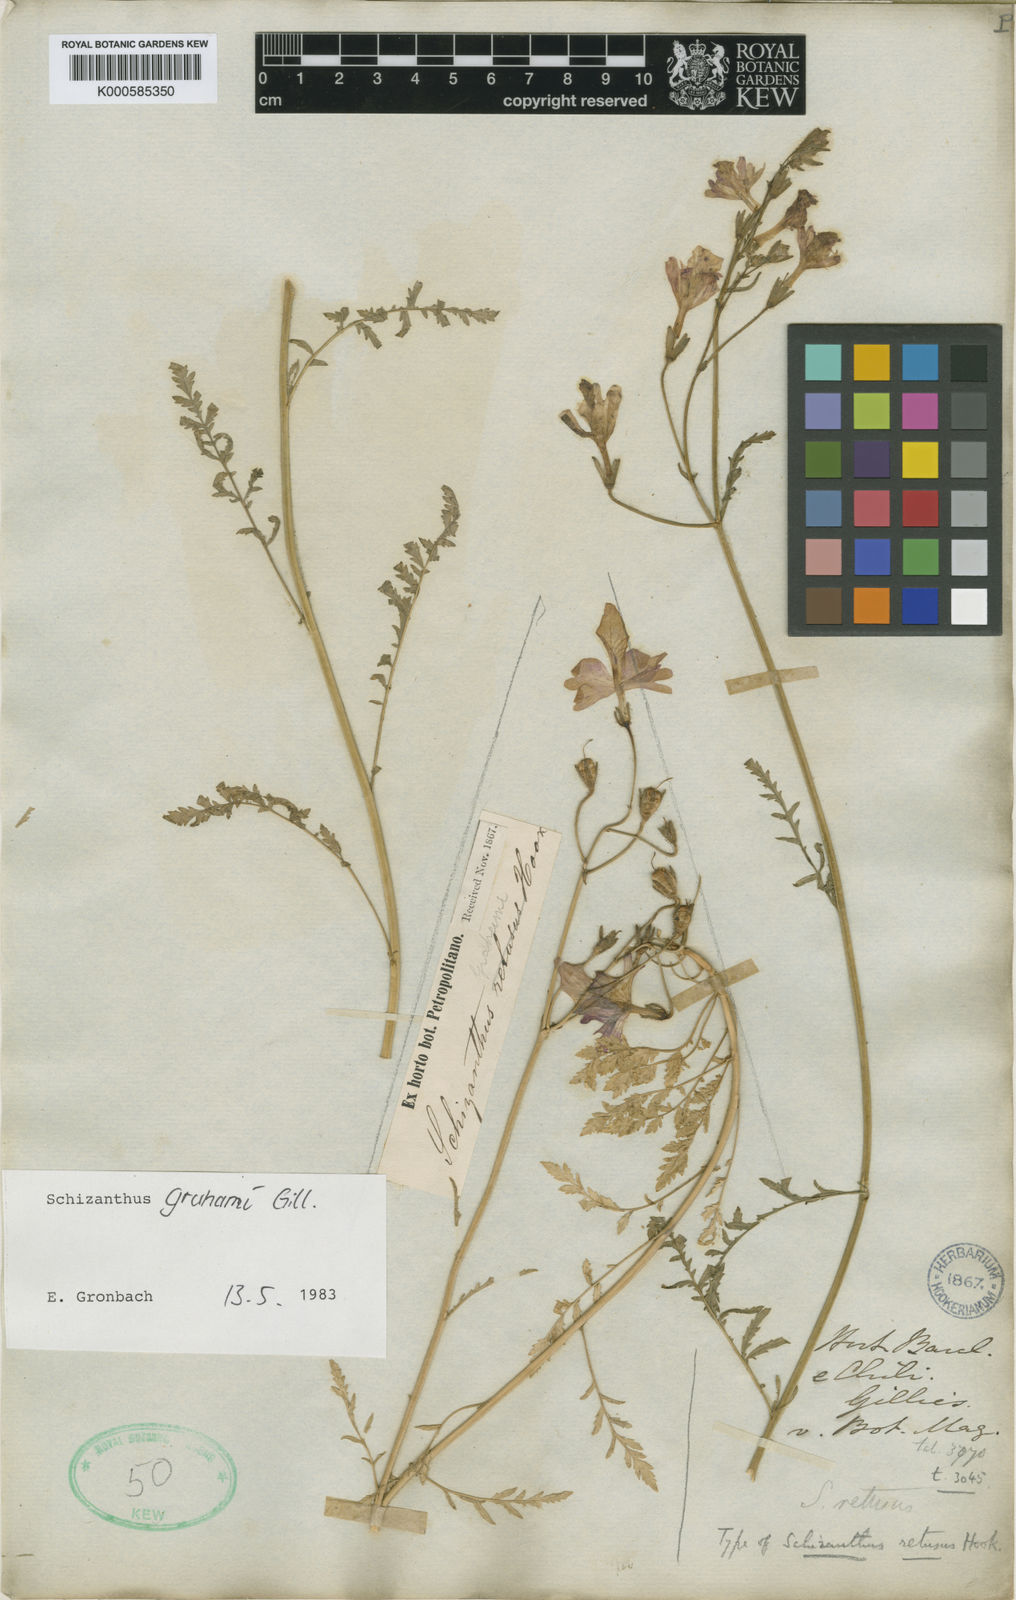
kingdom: Plantae
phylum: Tracheophyta
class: Magnoliopsida
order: Solanales
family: Solanaceae
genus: Schizanthus
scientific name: Schizanthus grahamii
